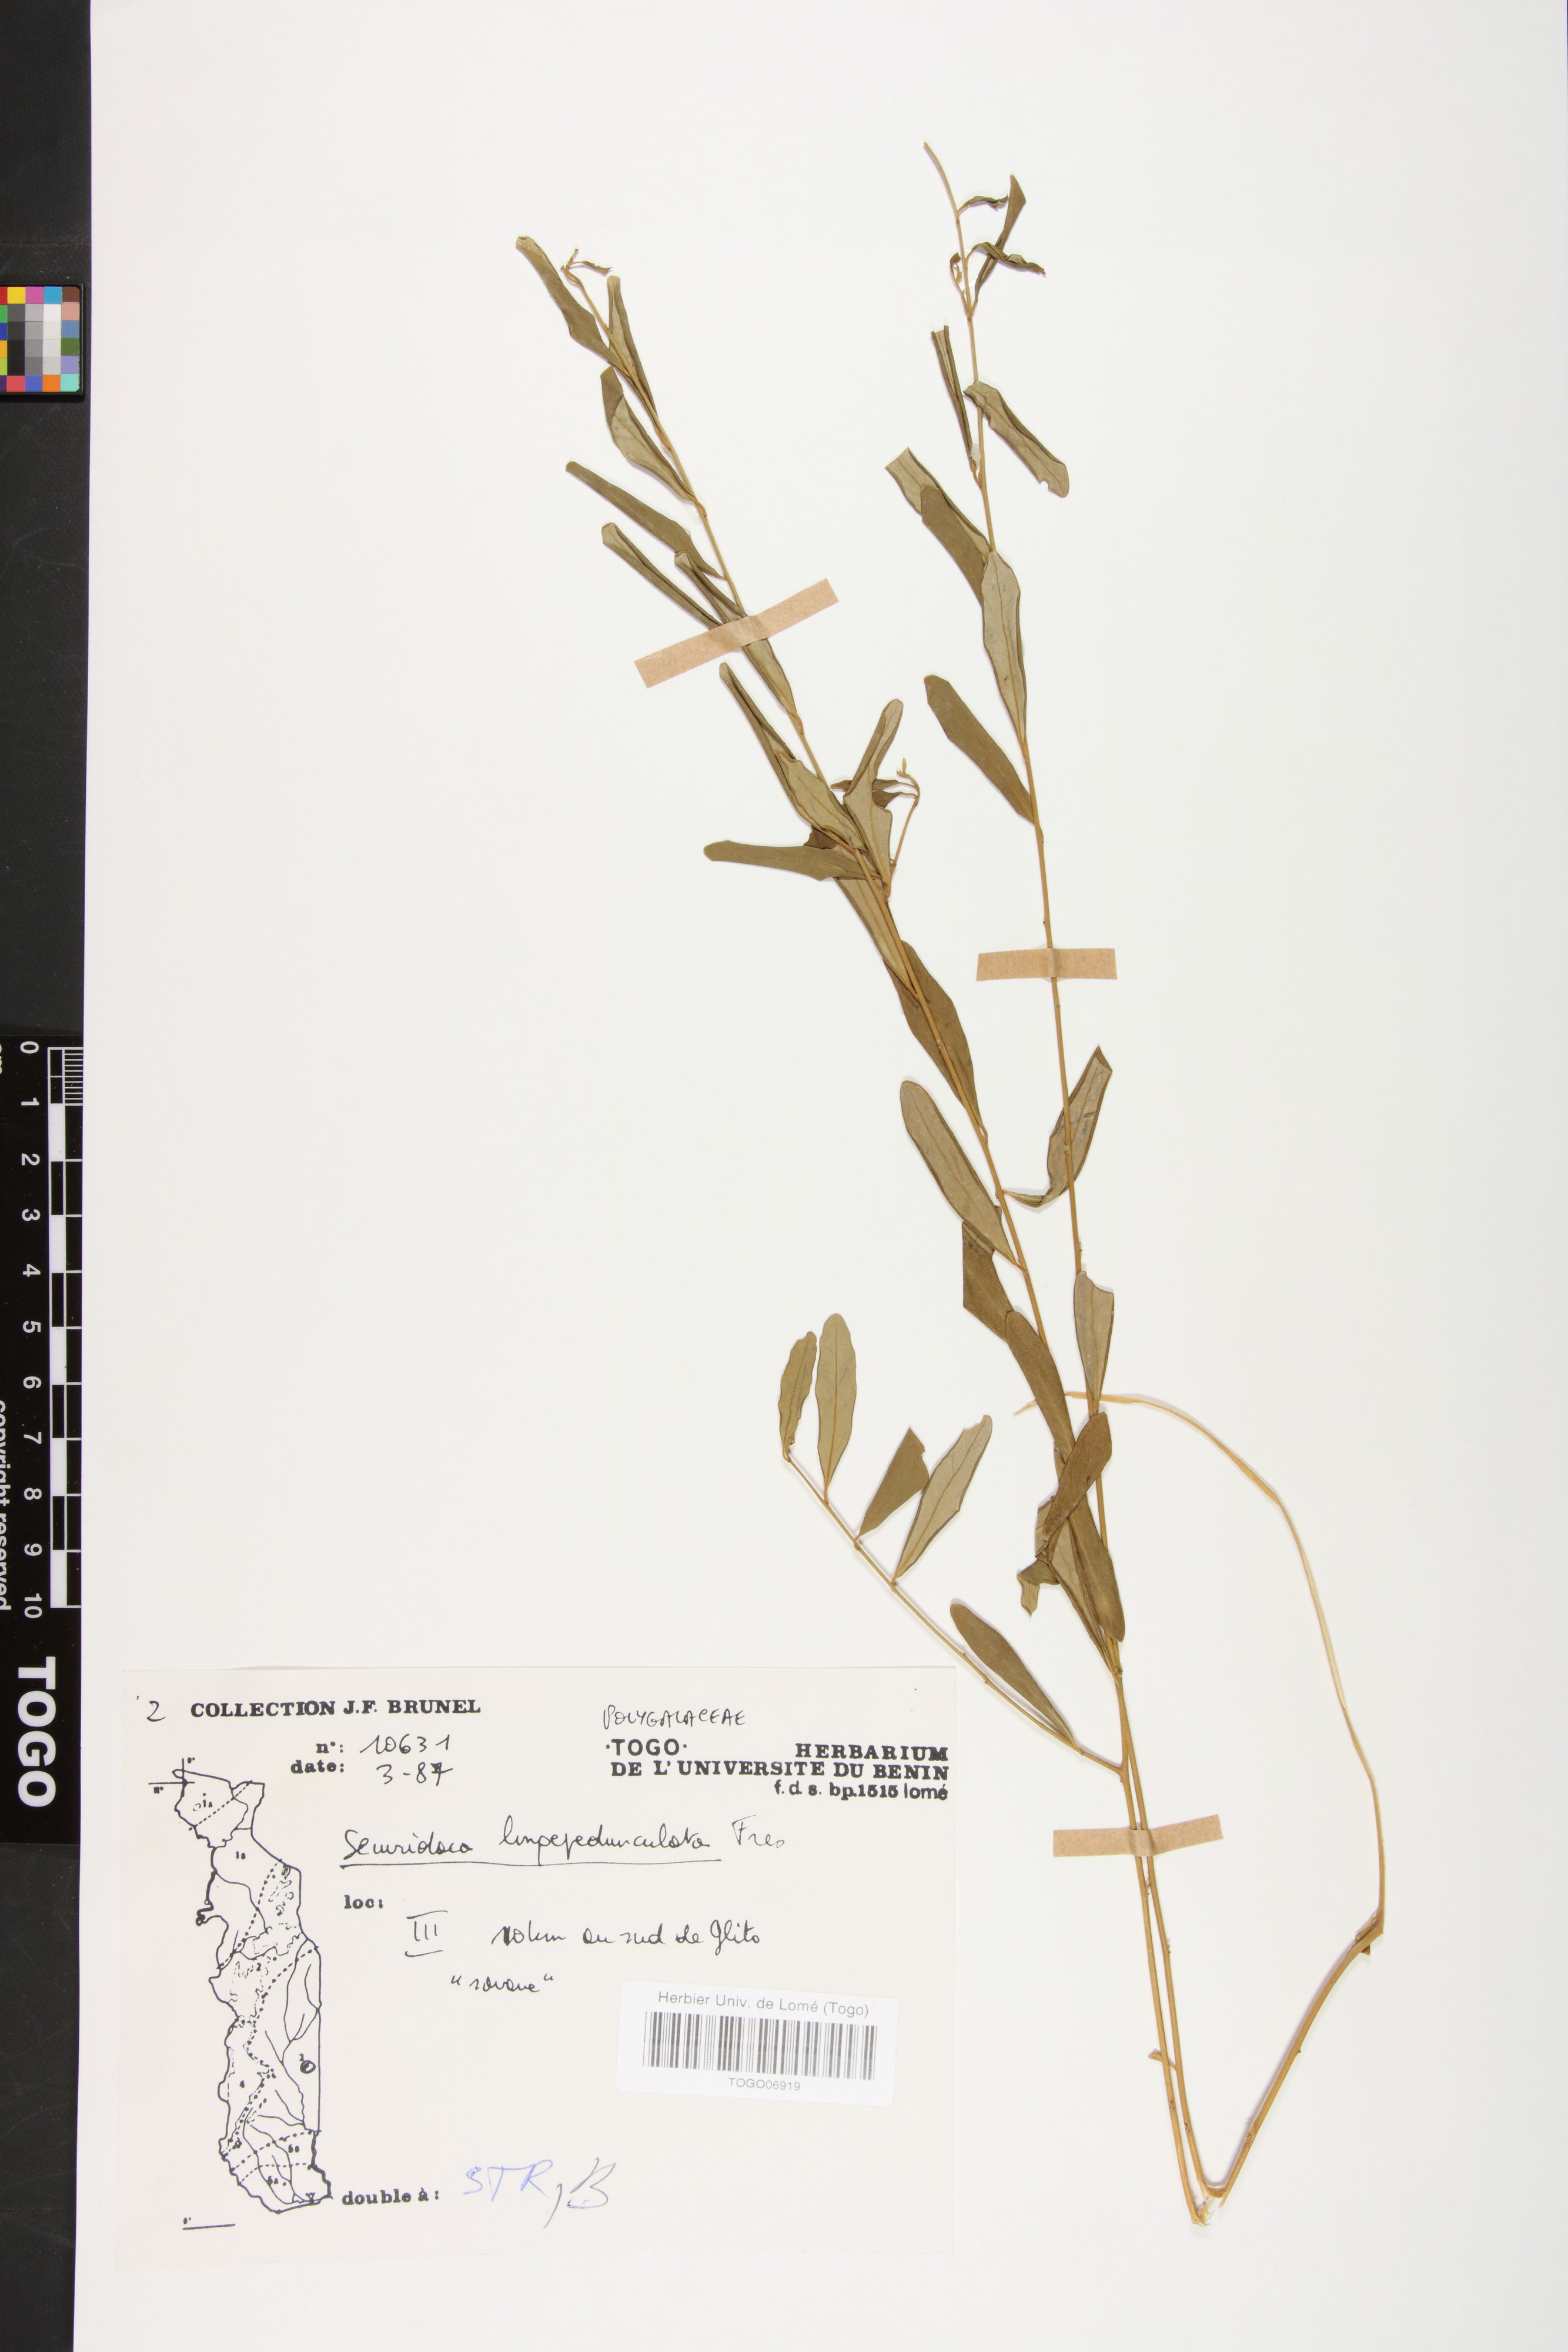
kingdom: Plantae
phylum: Tracheophyta
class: Magnoliopsida
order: Fabales
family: Polygalaceae
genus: Securidaca
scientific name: Securidaca longepedunculata
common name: Violet tree
